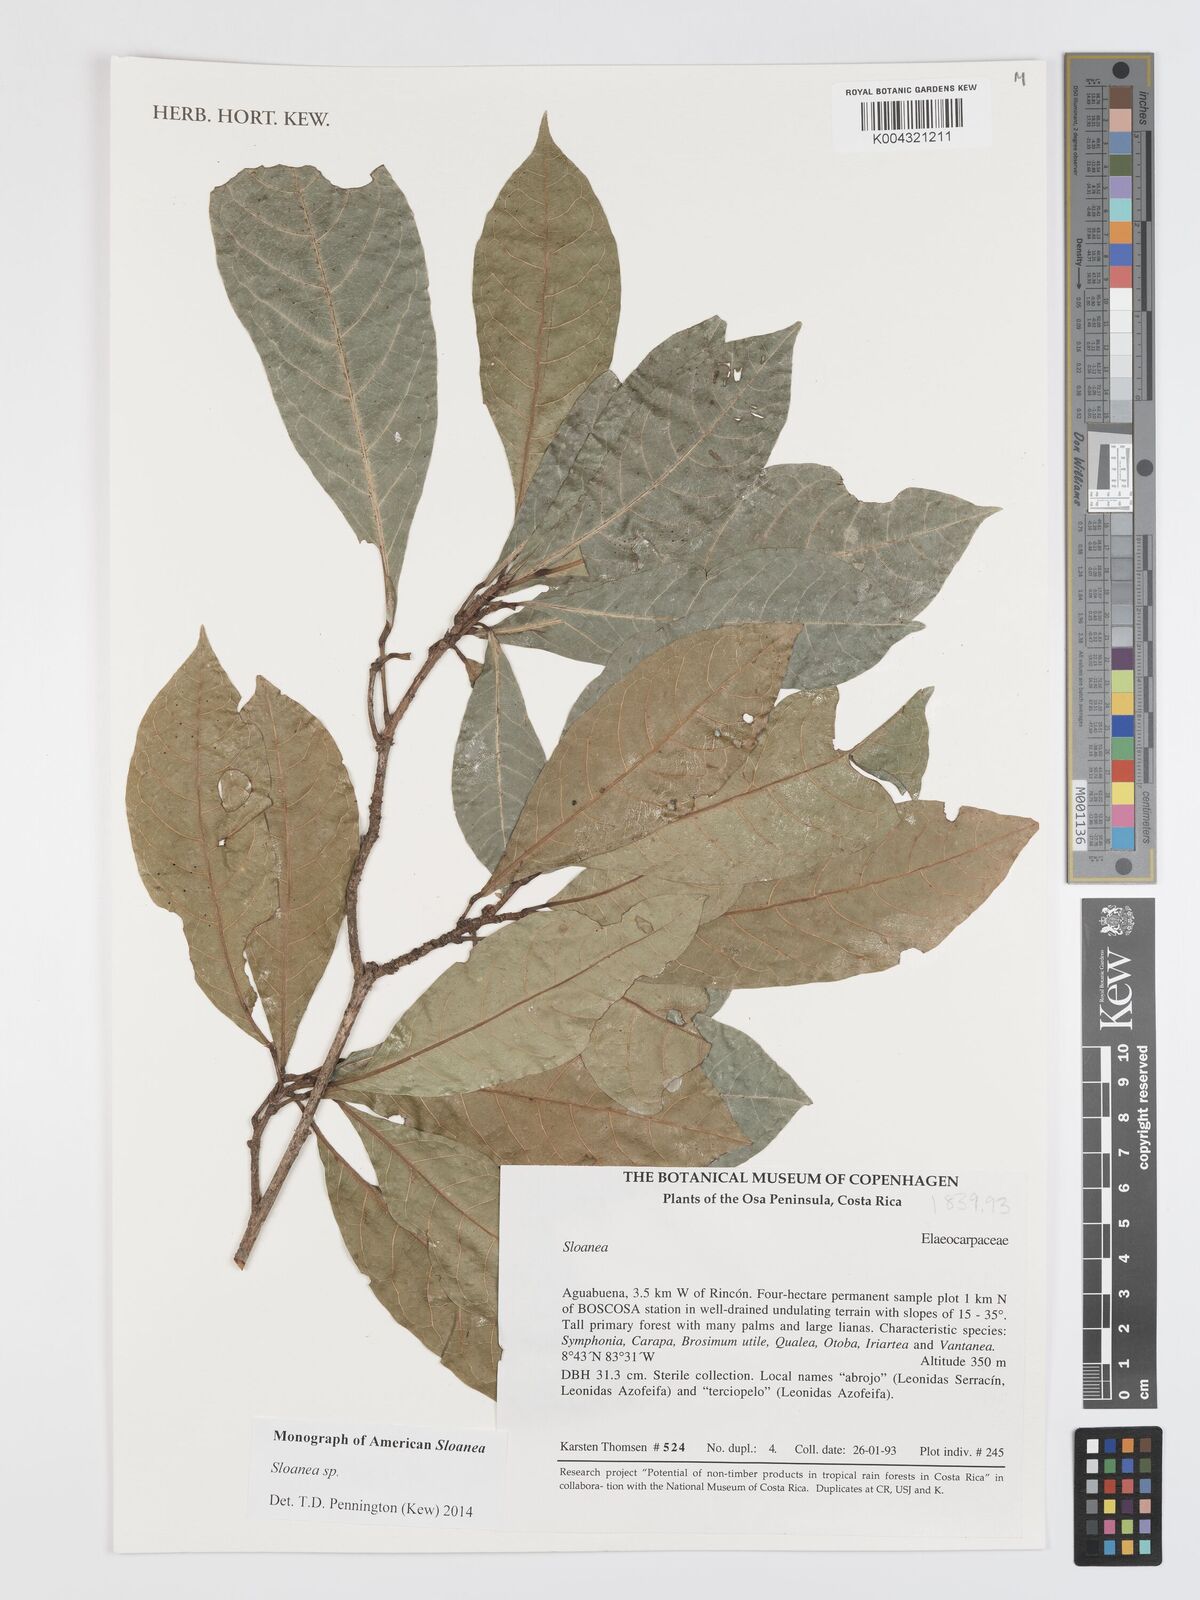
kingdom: Plantae
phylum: Tracheophyta
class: Magnoliopsida
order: Oxalidales
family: Elaeocarpaceae
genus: Sloanea
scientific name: Sloanea
